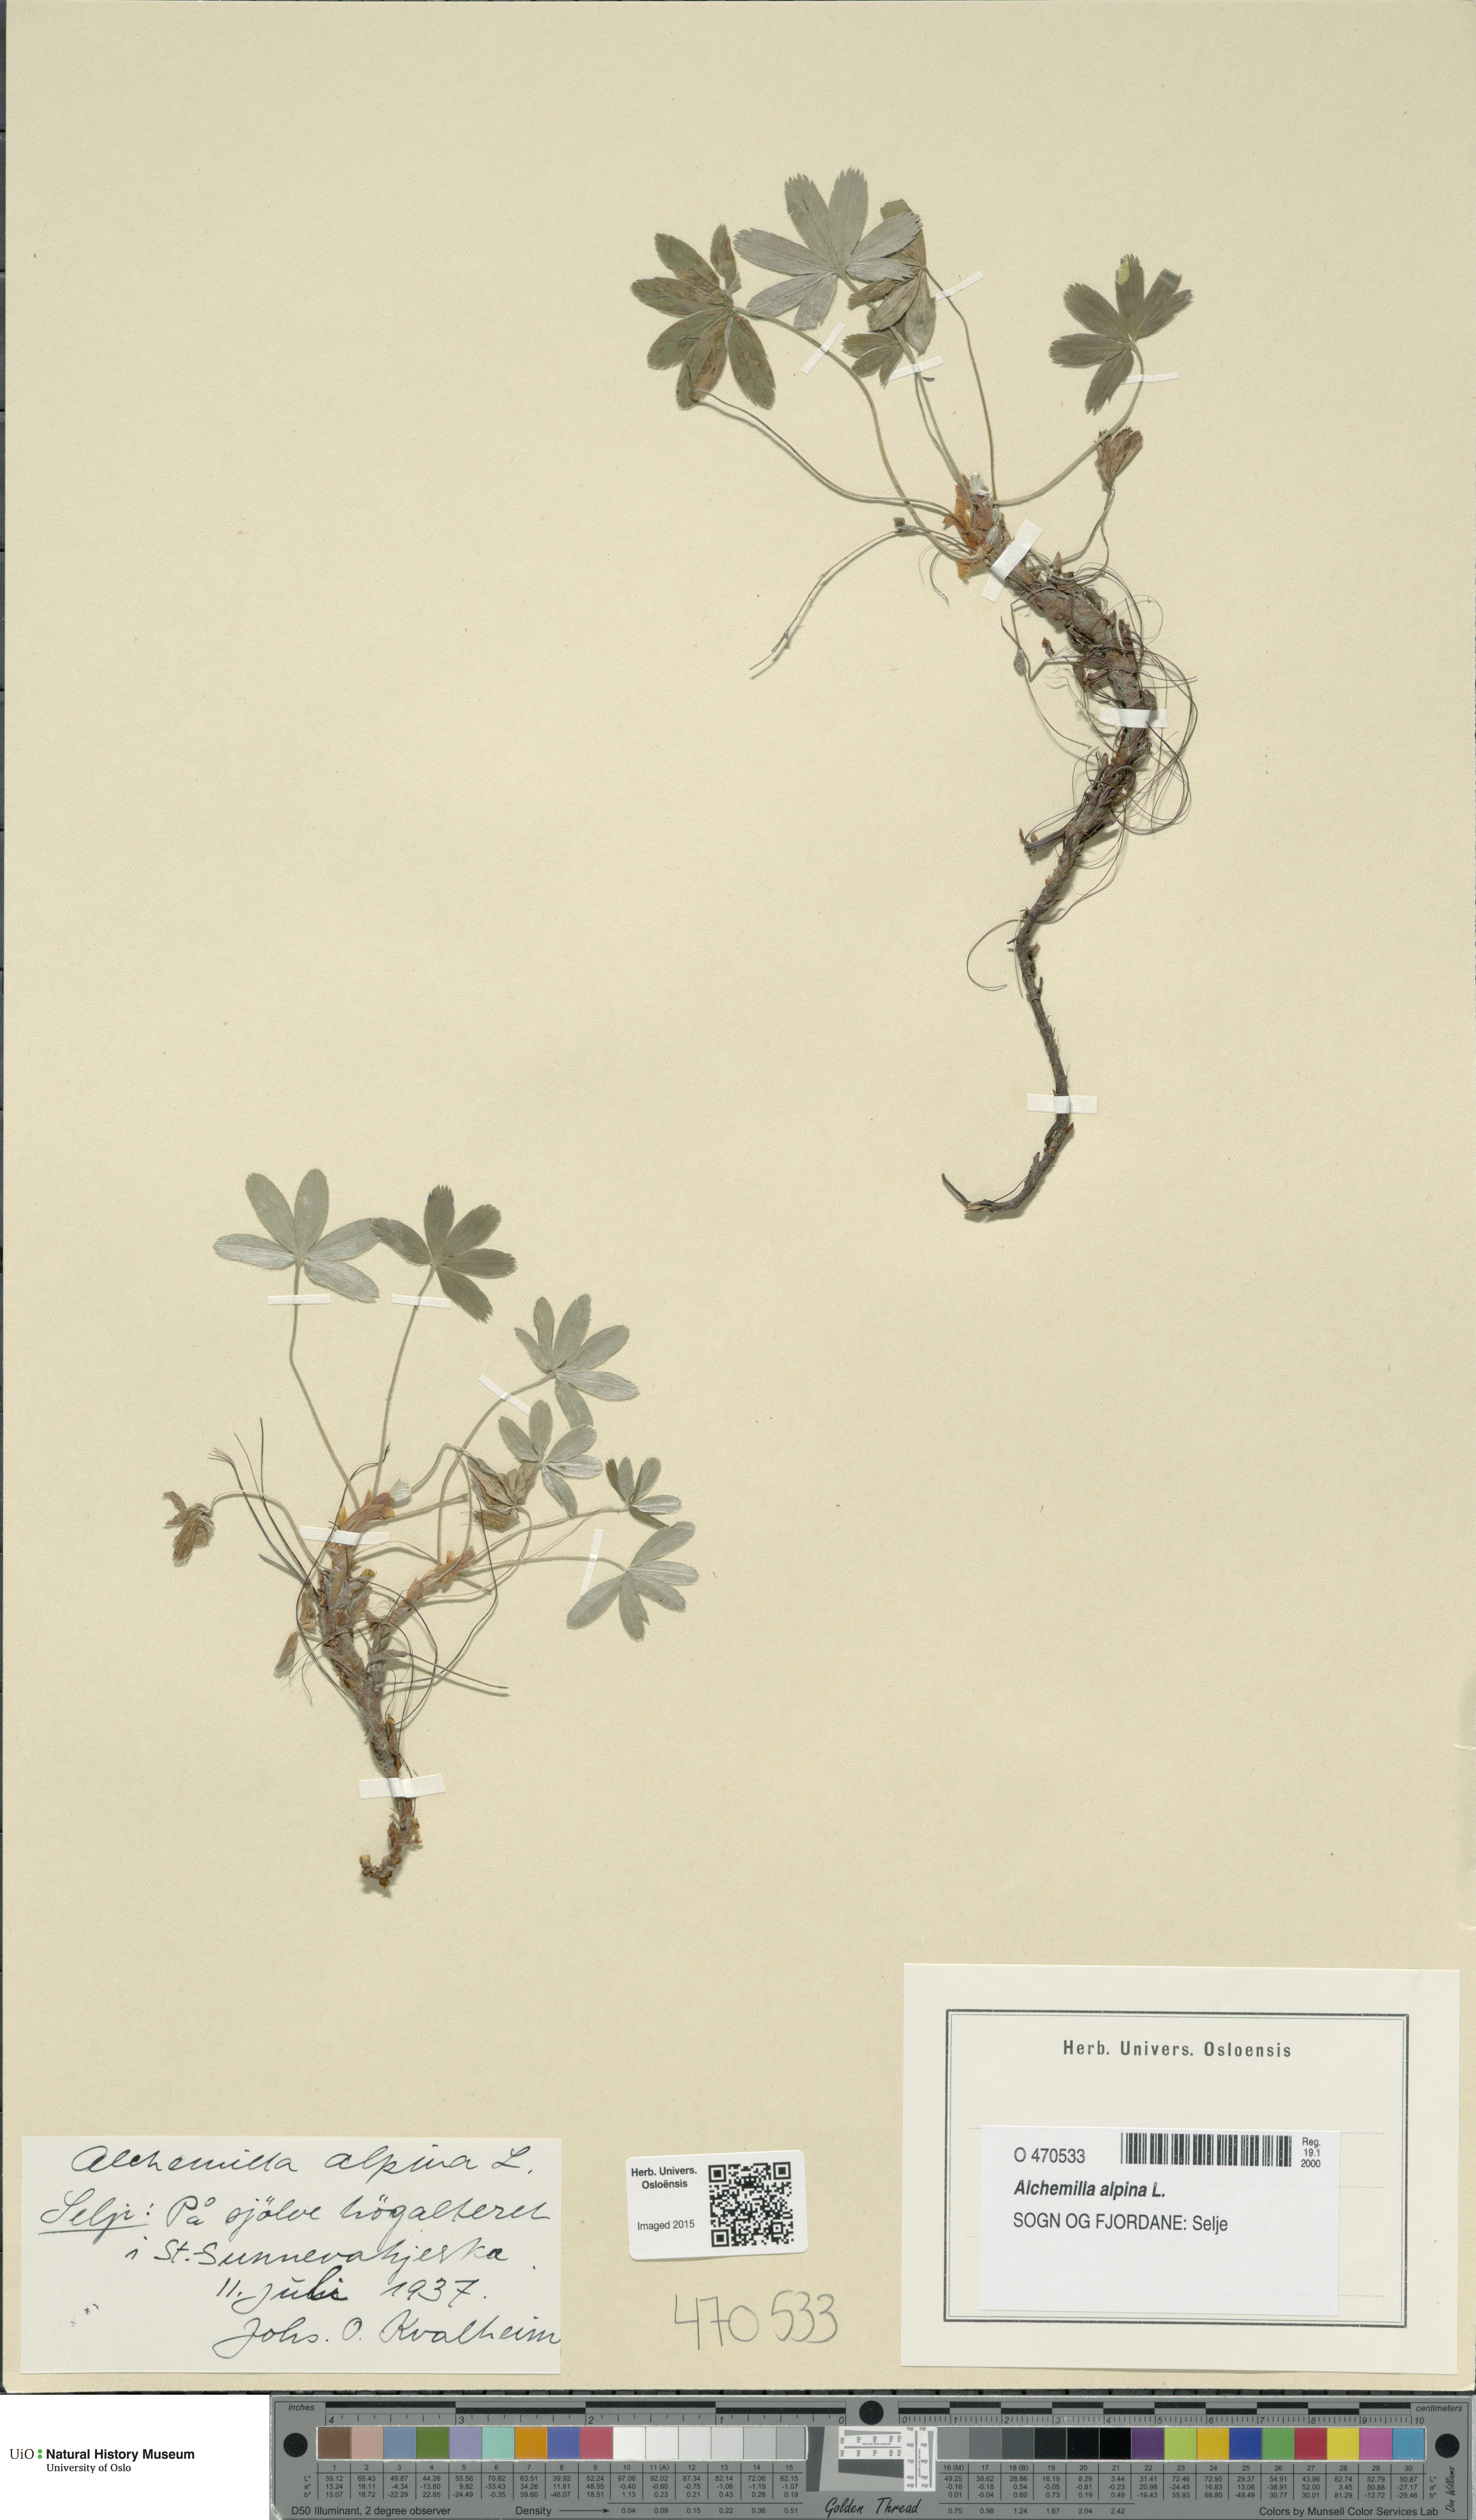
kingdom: Plantae
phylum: Tracheophyta
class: Magnoliopsida
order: Rosales
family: Rosaceae
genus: Alchemilla
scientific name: Alchemilla alpina
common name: Alpine lady's-mantle
